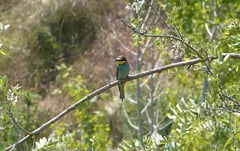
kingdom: Animalia
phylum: Chordata
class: Aves
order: Coraciiformes
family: Meropidae
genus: Merops
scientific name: Merops apiaster
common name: European bee-eater
